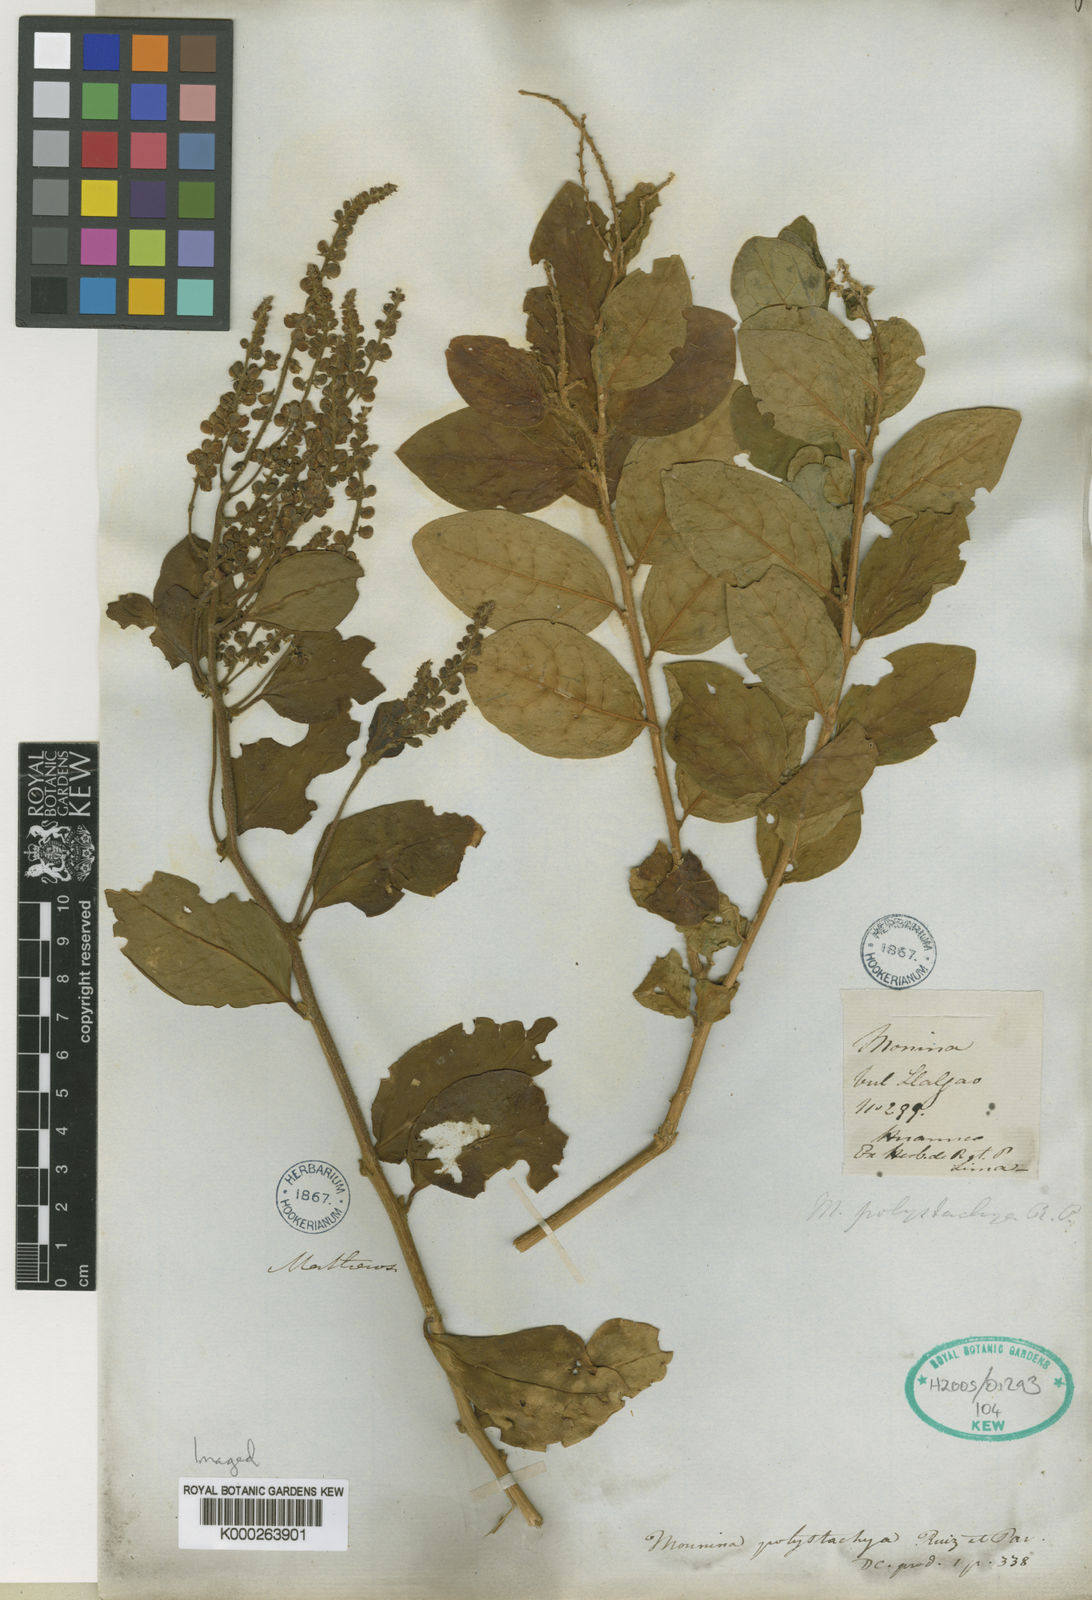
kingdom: Plantae
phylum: Tracheophyta
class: Magnoliopsida
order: Fabales
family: Polygalaceae
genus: Monnina
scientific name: Monnina polystachya
